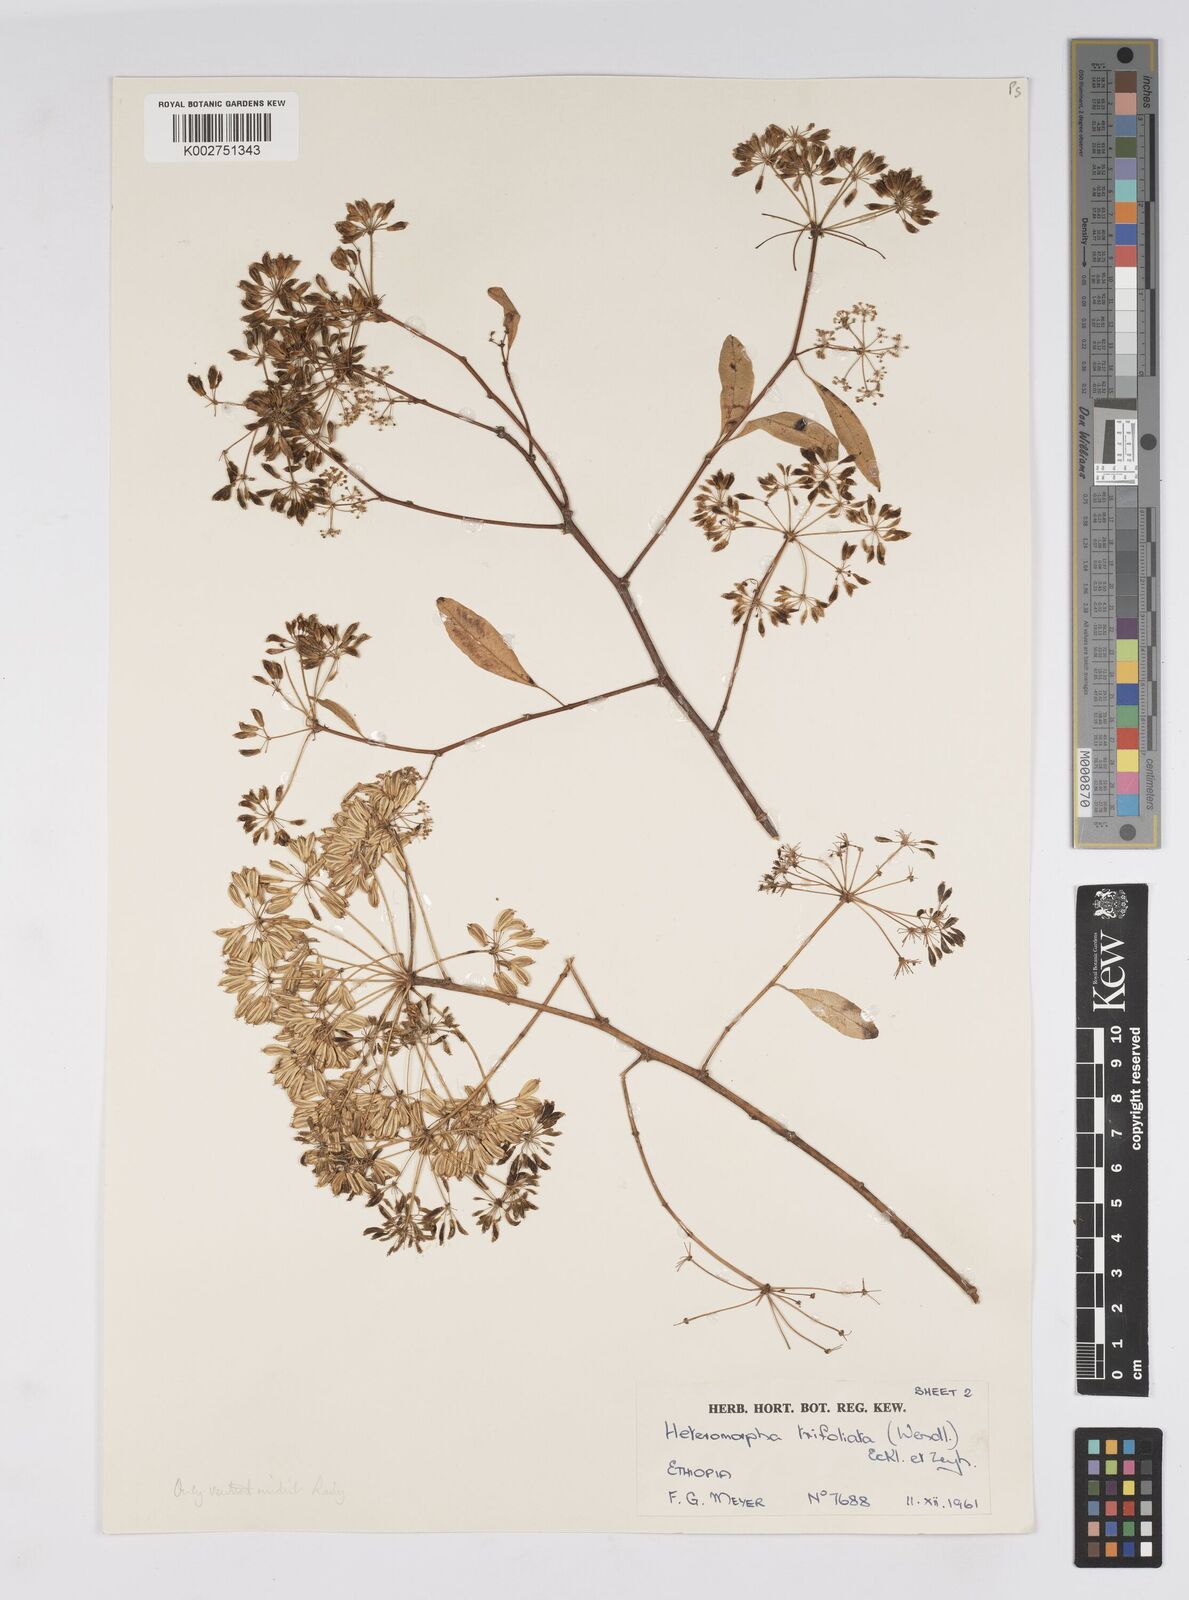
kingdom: Plantae
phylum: Tracheophyta
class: Magnoliopsida
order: Apiales
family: Apiaceae
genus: Heteromorpha
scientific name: Heteromorpha
